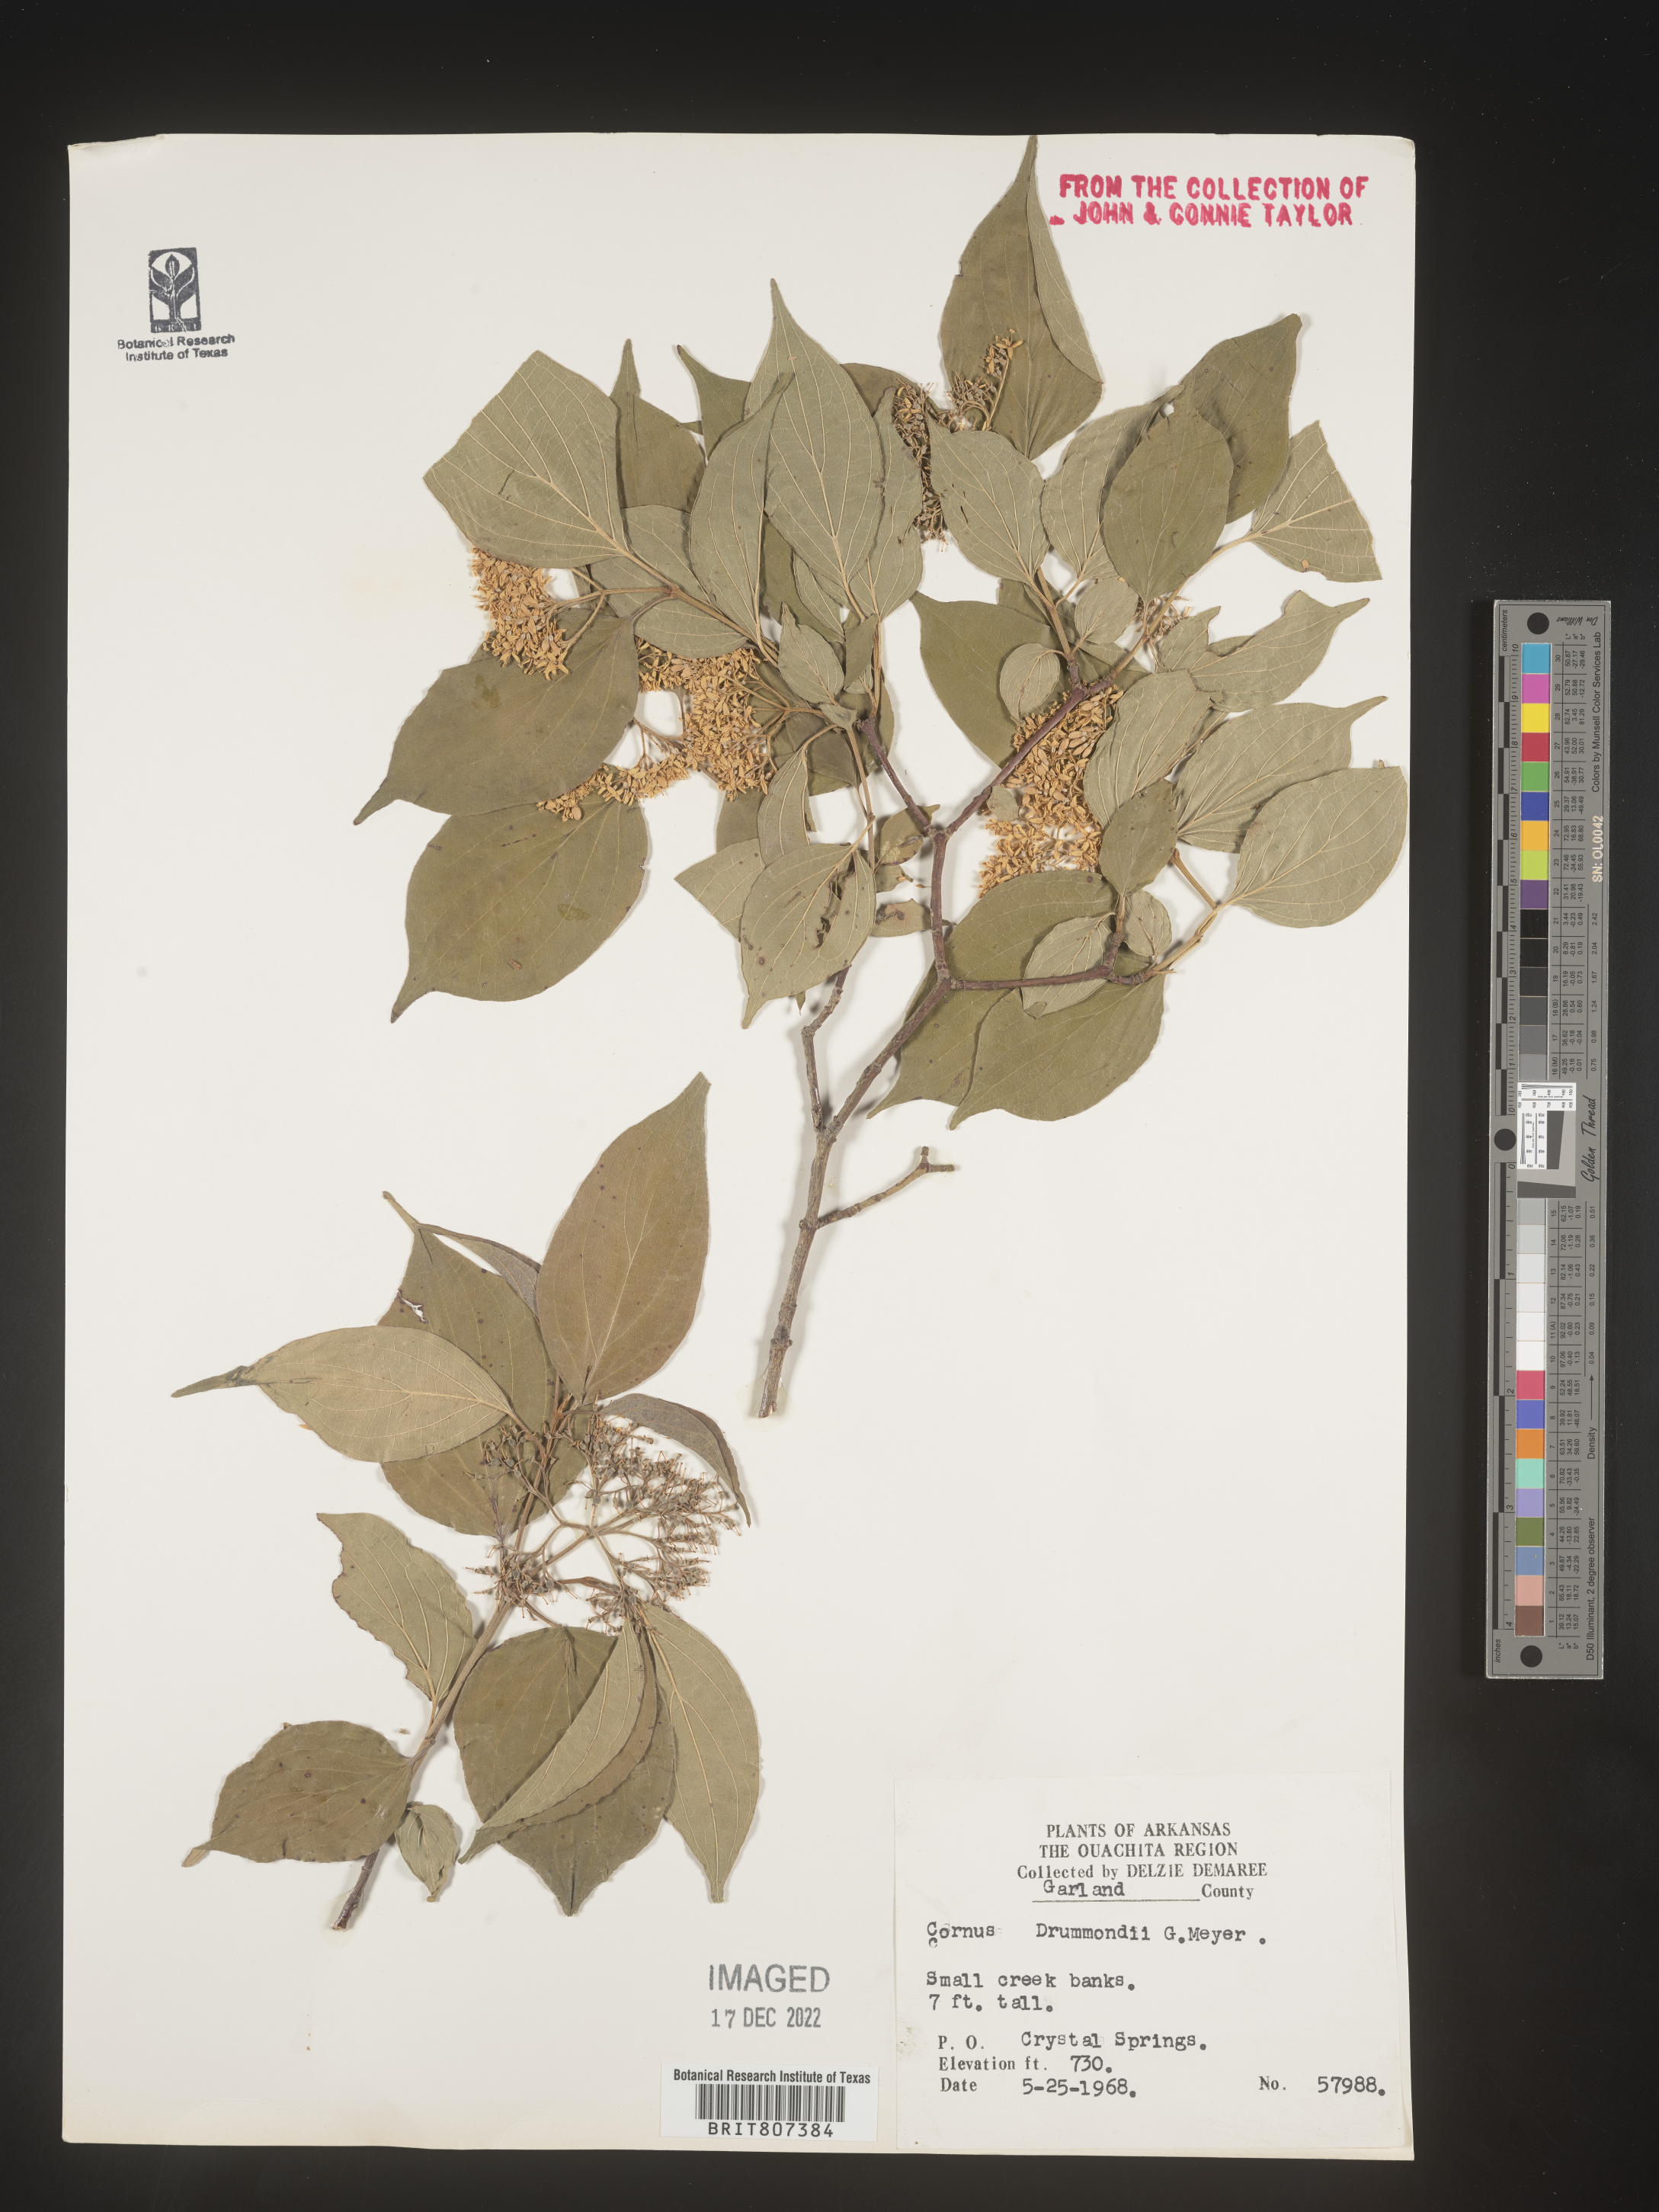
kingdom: Plantae
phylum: Tracheophyta
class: Magnoliopsida
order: Cornales
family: Cornaceae
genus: Cornus
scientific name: Cornus drummondii
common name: Rough-leaf dogwood
